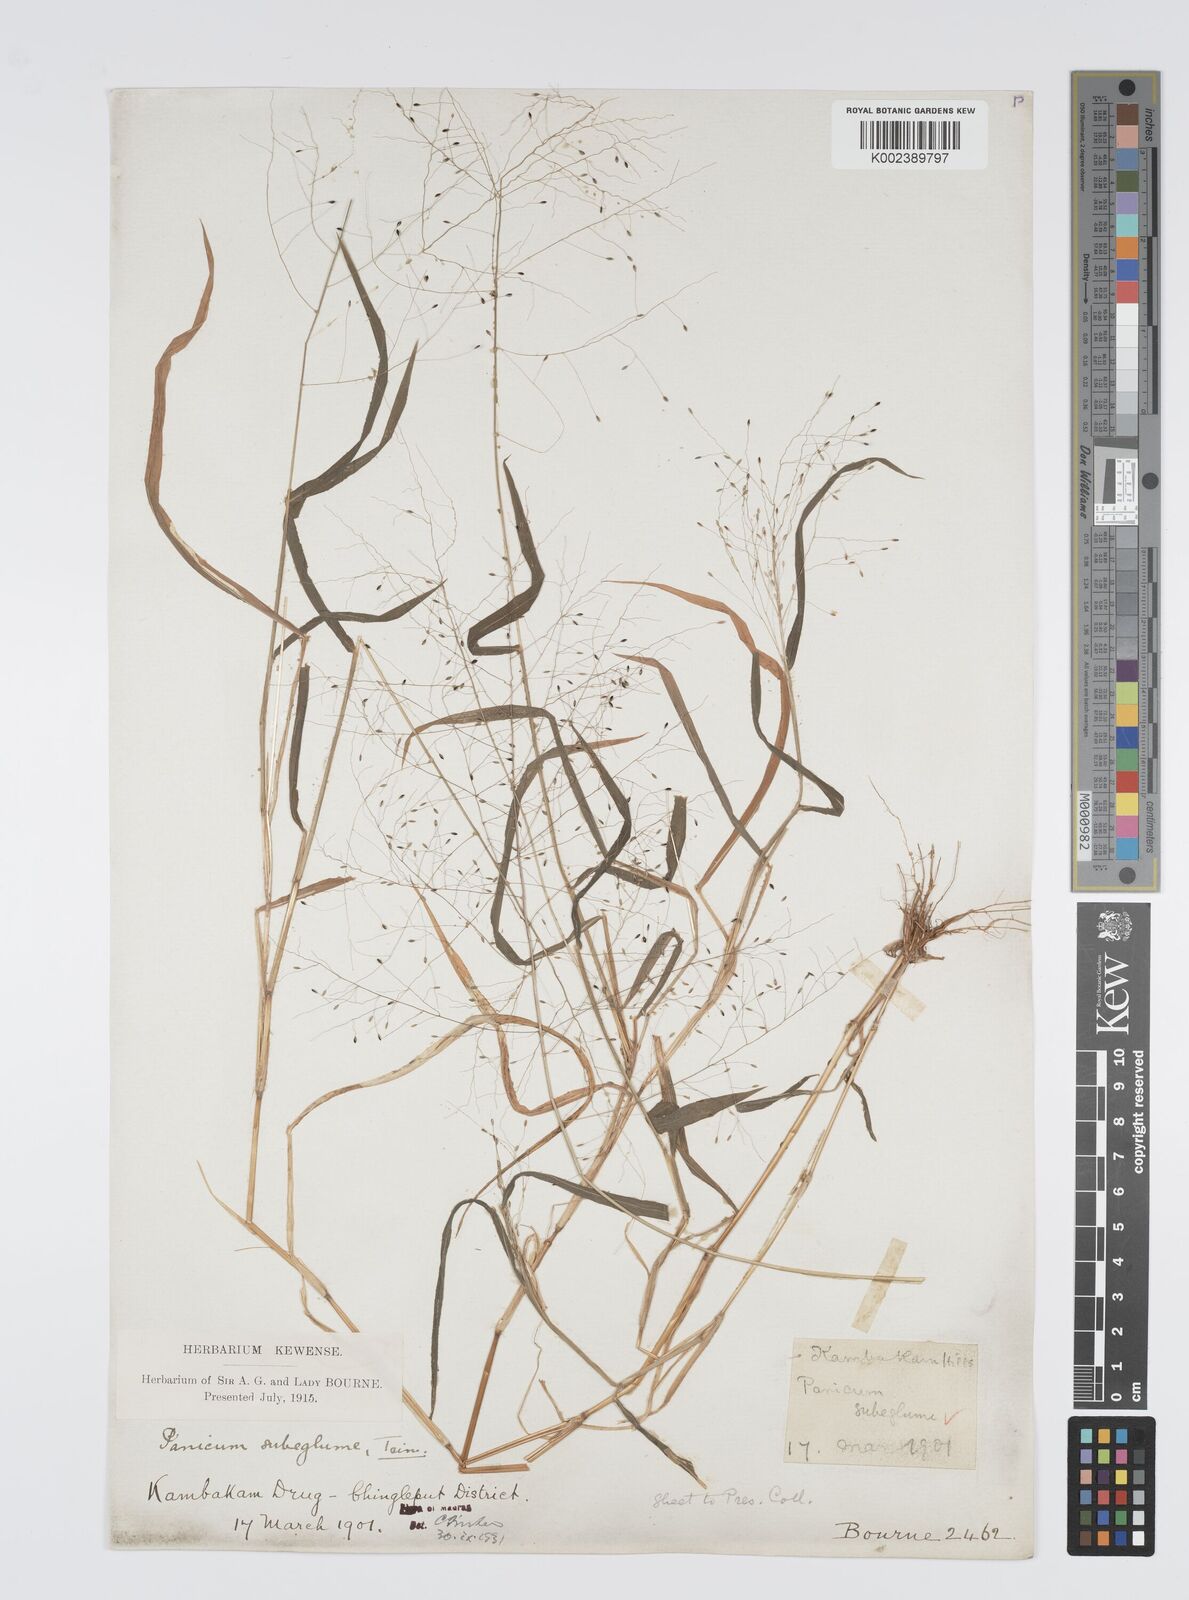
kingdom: Plantae
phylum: Tracheophyta
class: Liliopsida
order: Poales
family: Poaceae
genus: Digitaria
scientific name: Digitaria tomentosa
